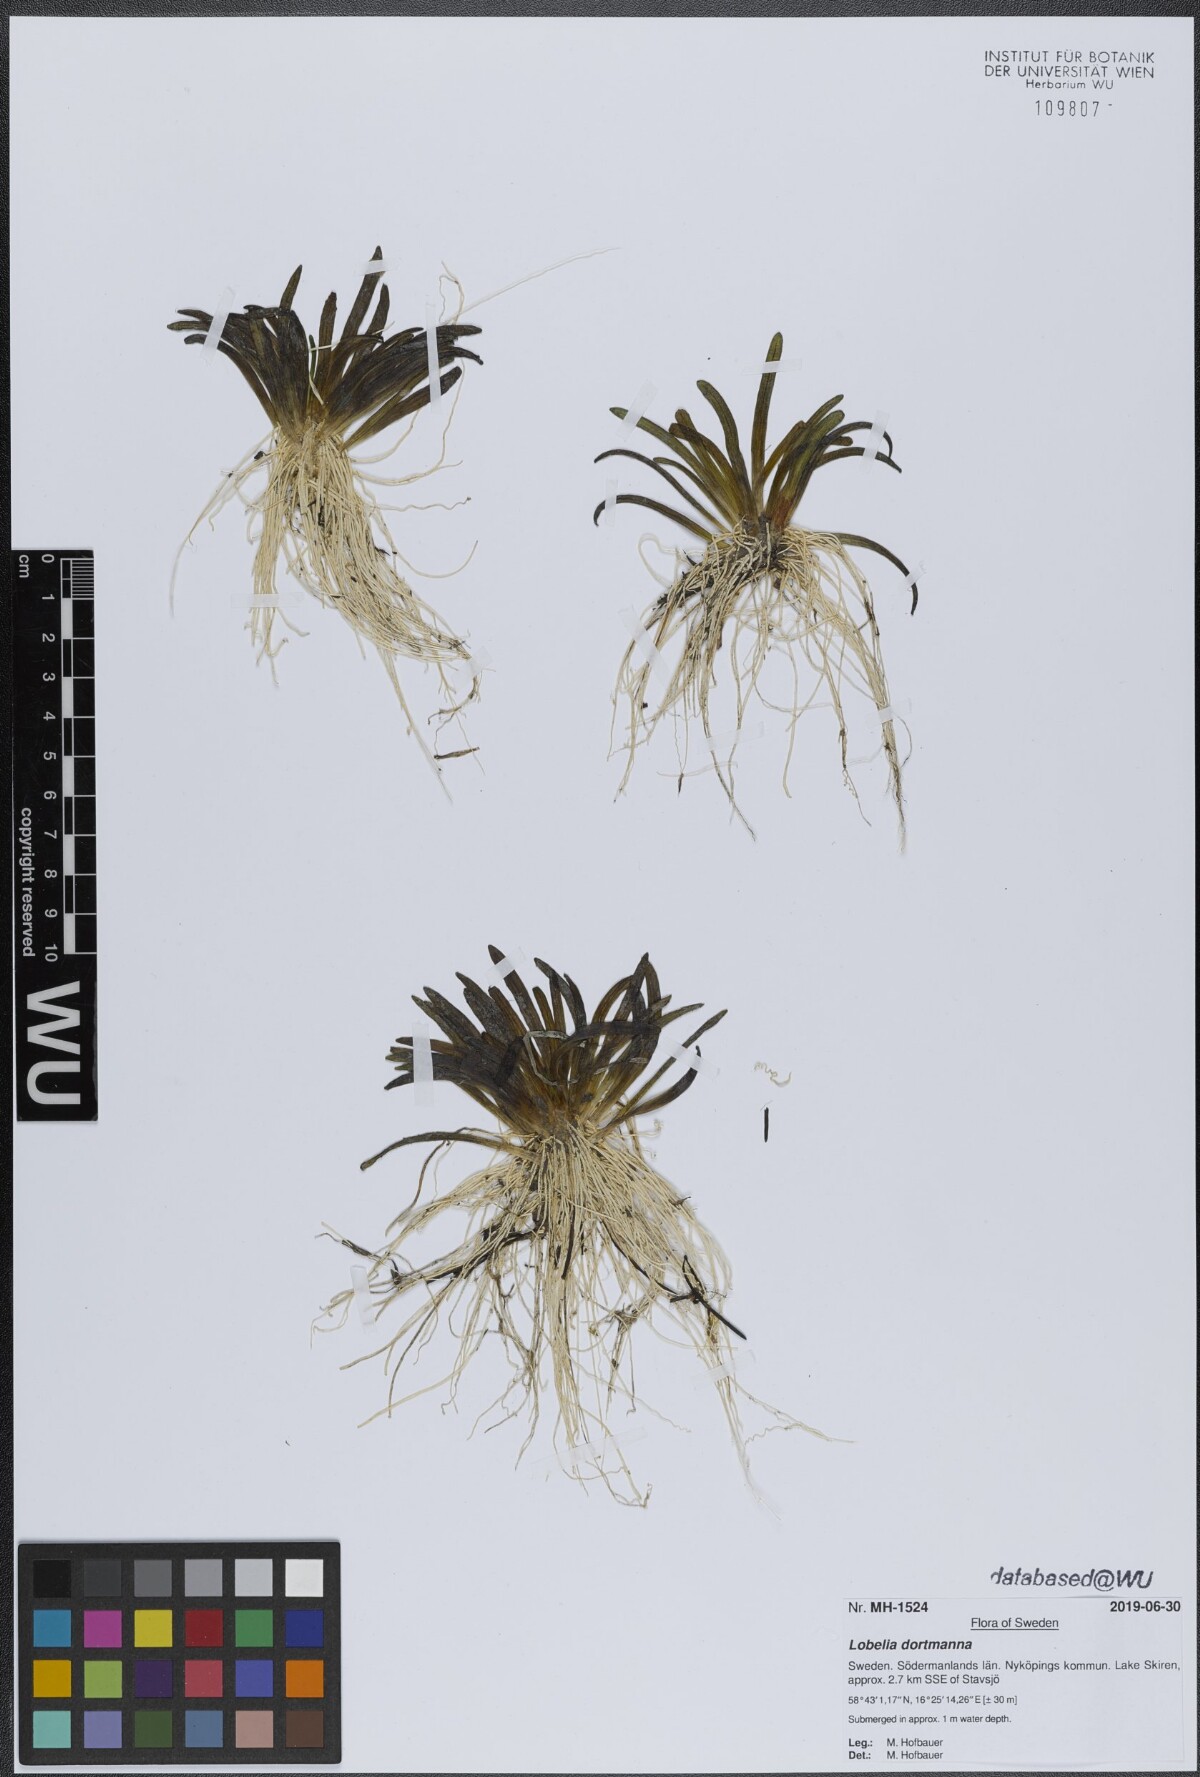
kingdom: Plantae
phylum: Tracheophyta
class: Magnoliopsida
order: Asterales
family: Campanulaceae
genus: Lobelia
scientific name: Lobelia dortmanna
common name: Water lobelia
